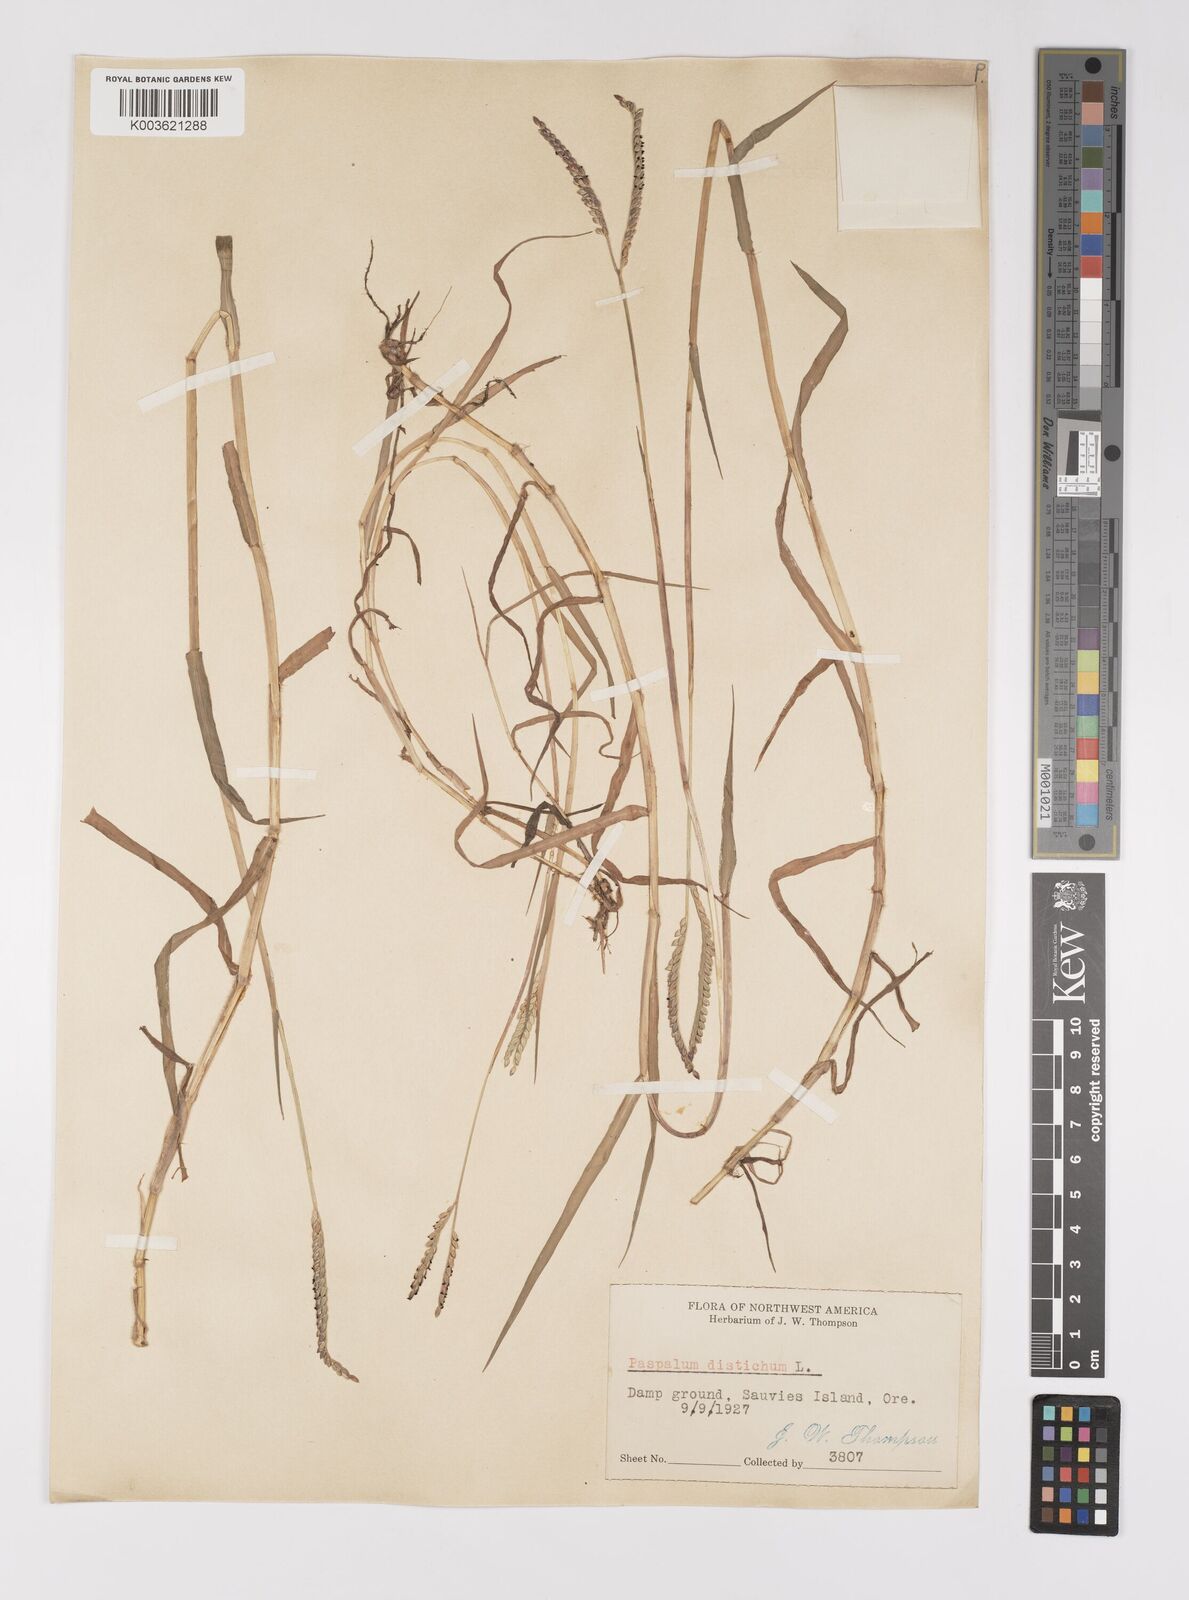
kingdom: Plantae
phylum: Tracheophyta
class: Liliopsida
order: Poales
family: Poaceae
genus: Paspalum
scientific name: Paspalum distichum
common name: Knotgrass
